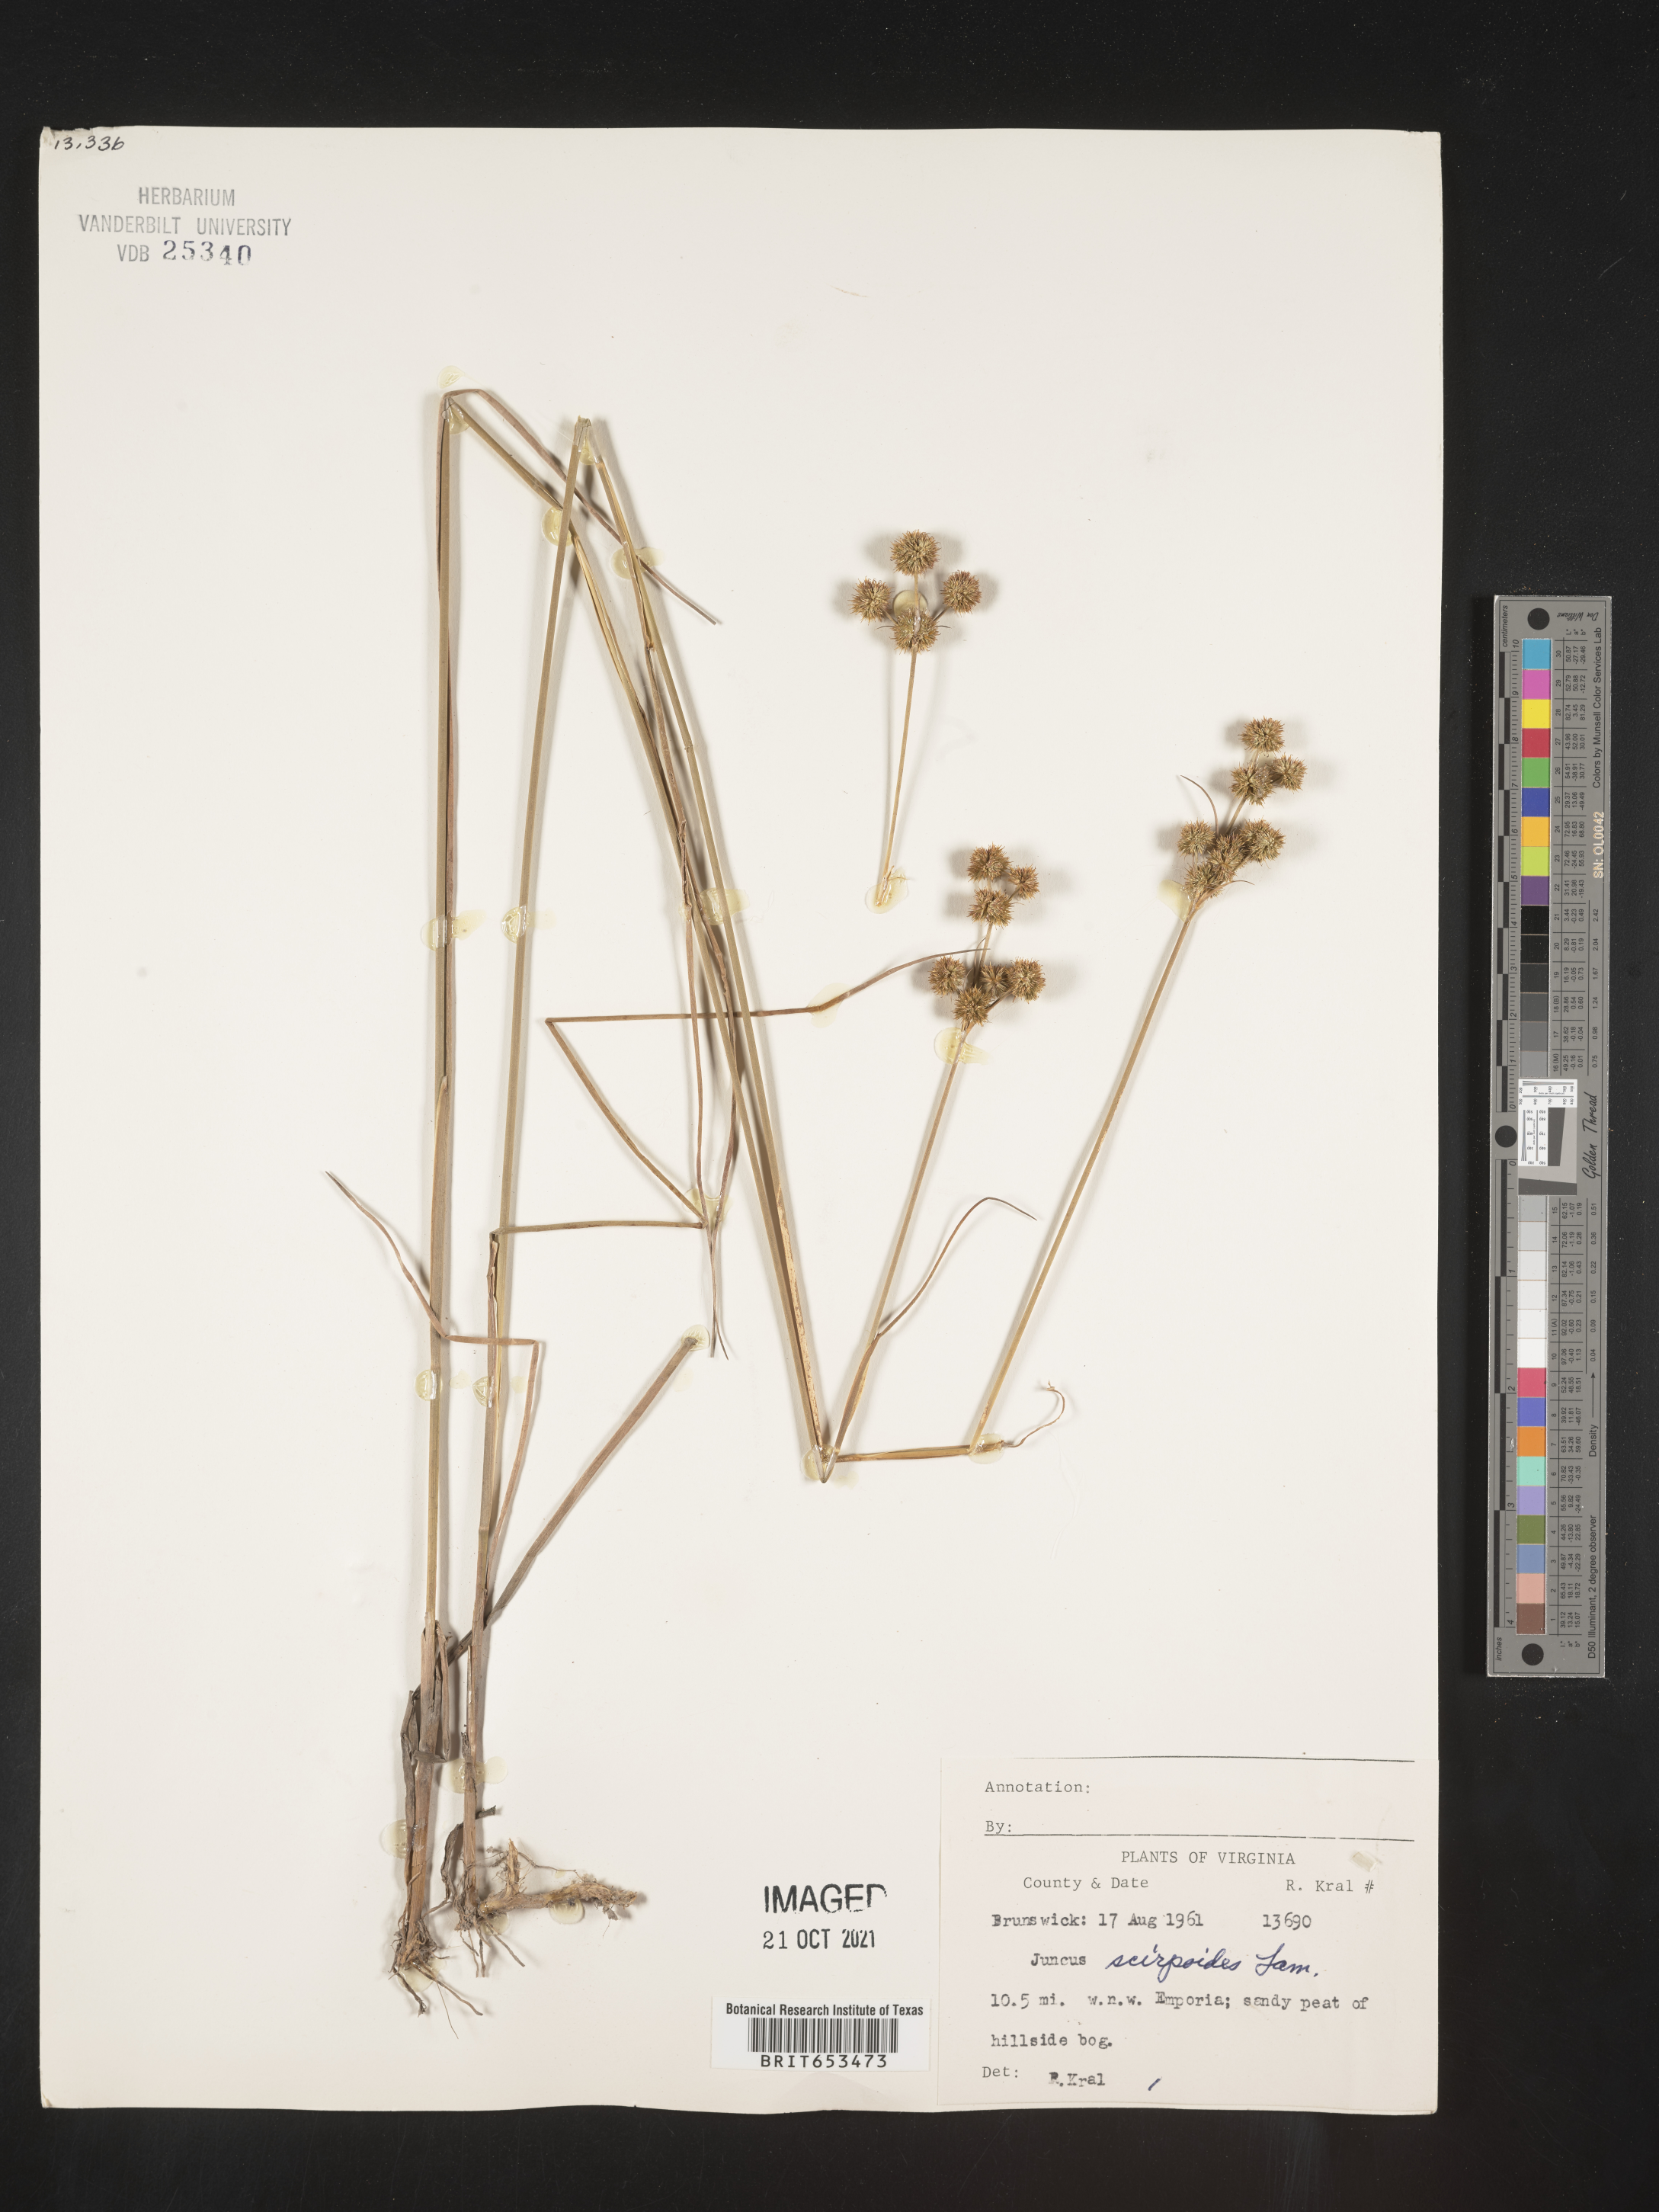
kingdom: Plantae
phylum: Tracheophyta
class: Liliopsida
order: Poales
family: Juncaceae
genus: Juncus
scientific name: Juncus scirpoides
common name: Needlepod rush
